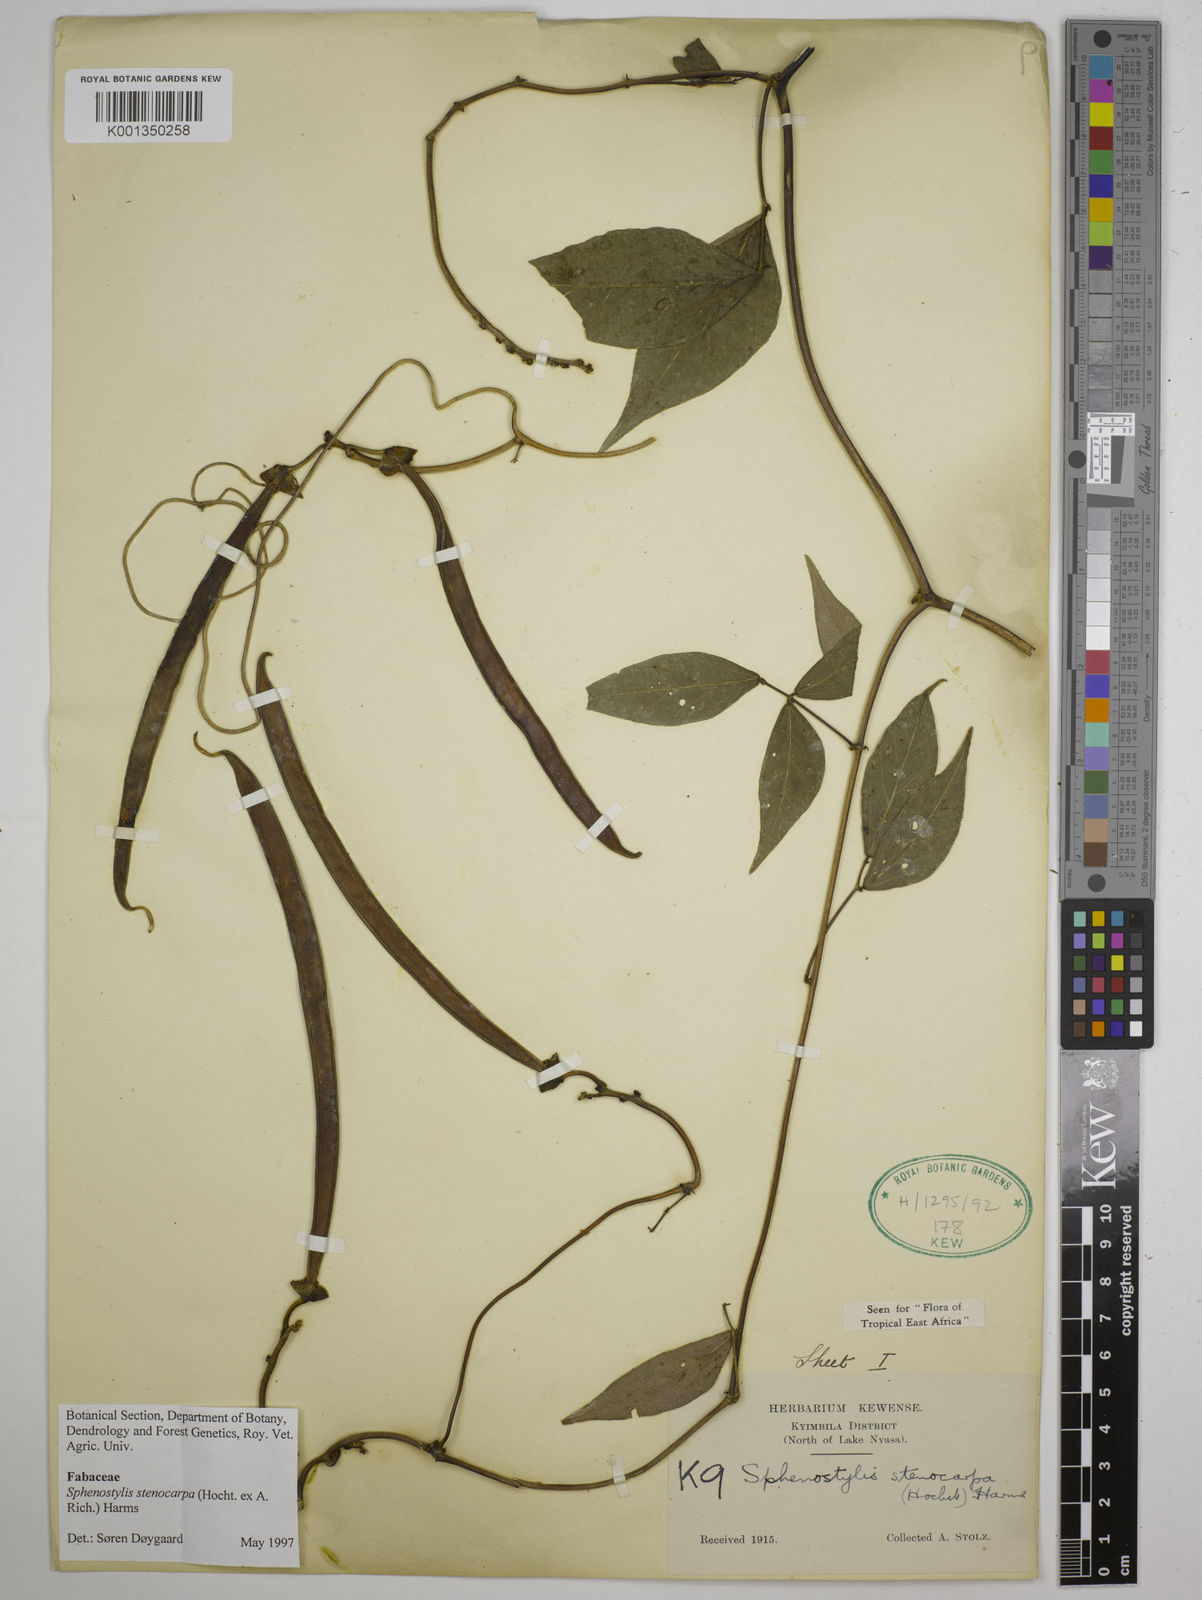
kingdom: Plantae
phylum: Tracheophyta
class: Magnoliopsida
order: Fabales
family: Fabaceae
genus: Sphenostylis
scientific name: Sphenostylis stenocarpa
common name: Yam-pea
